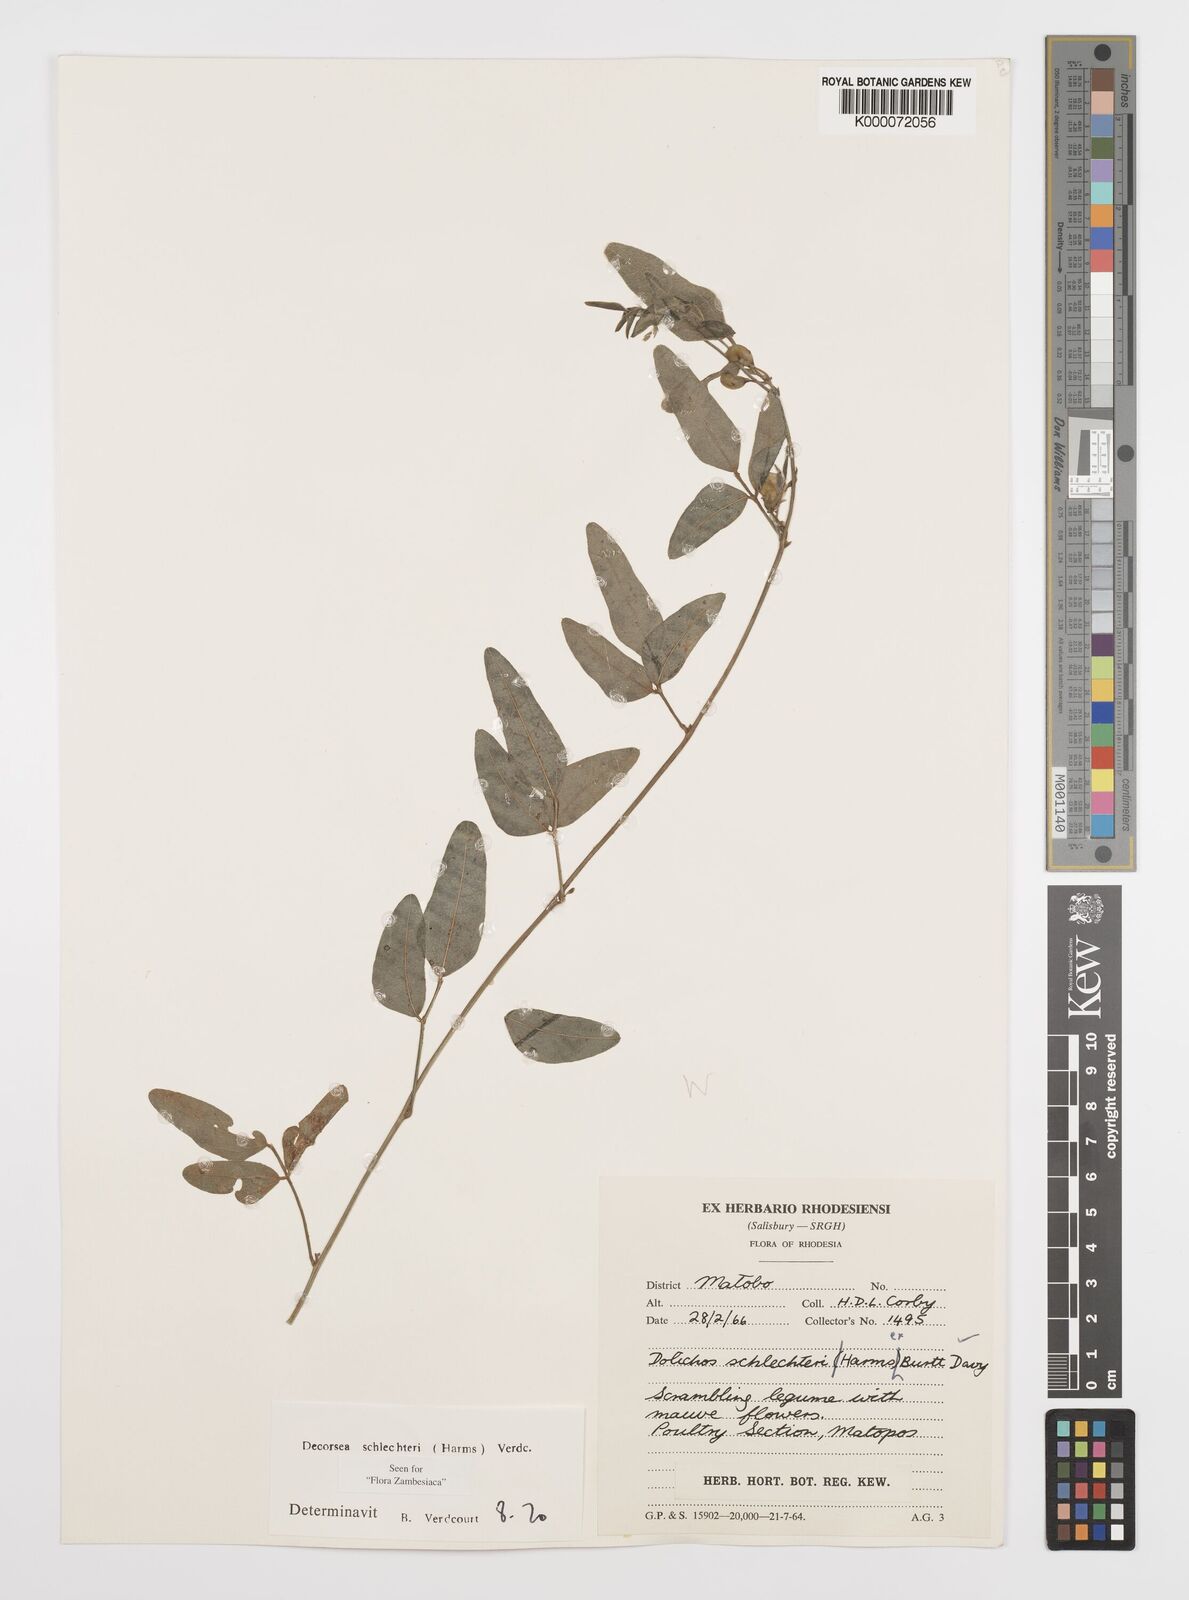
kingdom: Plantae
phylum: Tracheophyta
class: Magnoliopsida
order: Fabales
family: Fabaceae
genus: Decorsea
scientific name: Decorsea schlechteri
